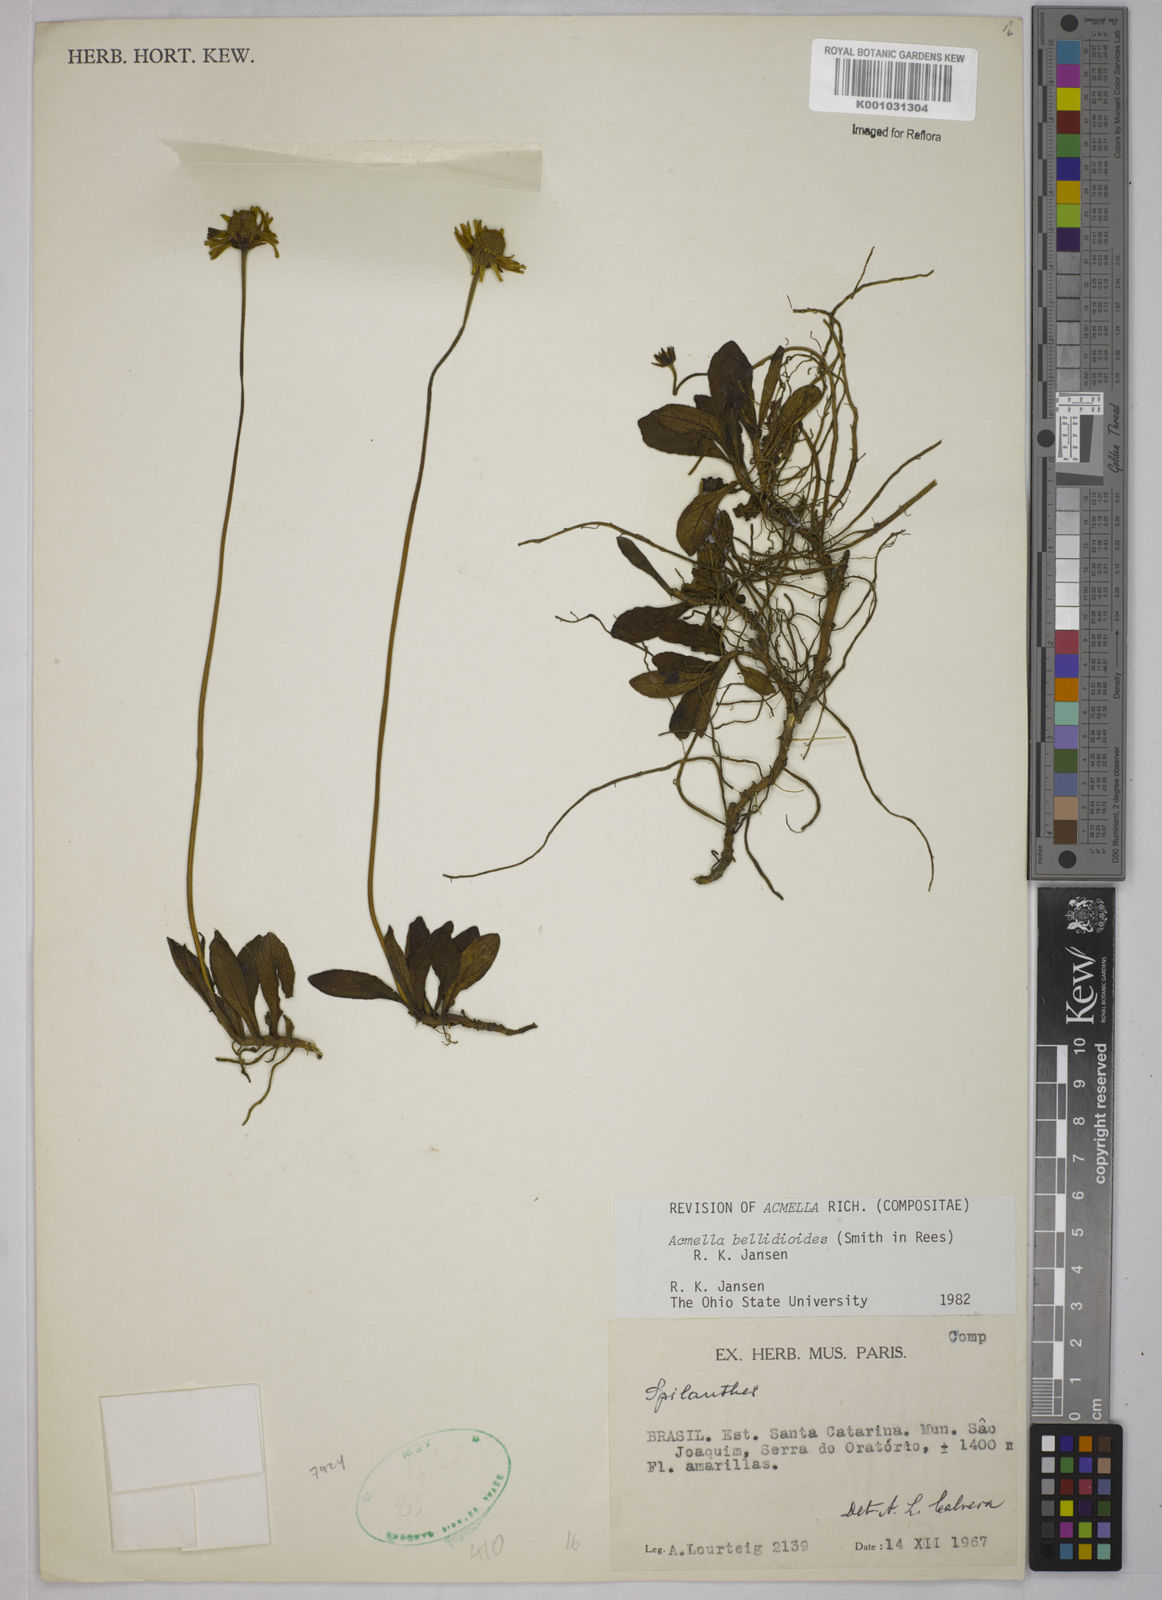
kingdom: Plantae
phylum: Tracheophyta
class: Magnoliopsida
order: Asterales
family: Asteraceae
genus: Acmella
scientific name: Acmella bellidioides
